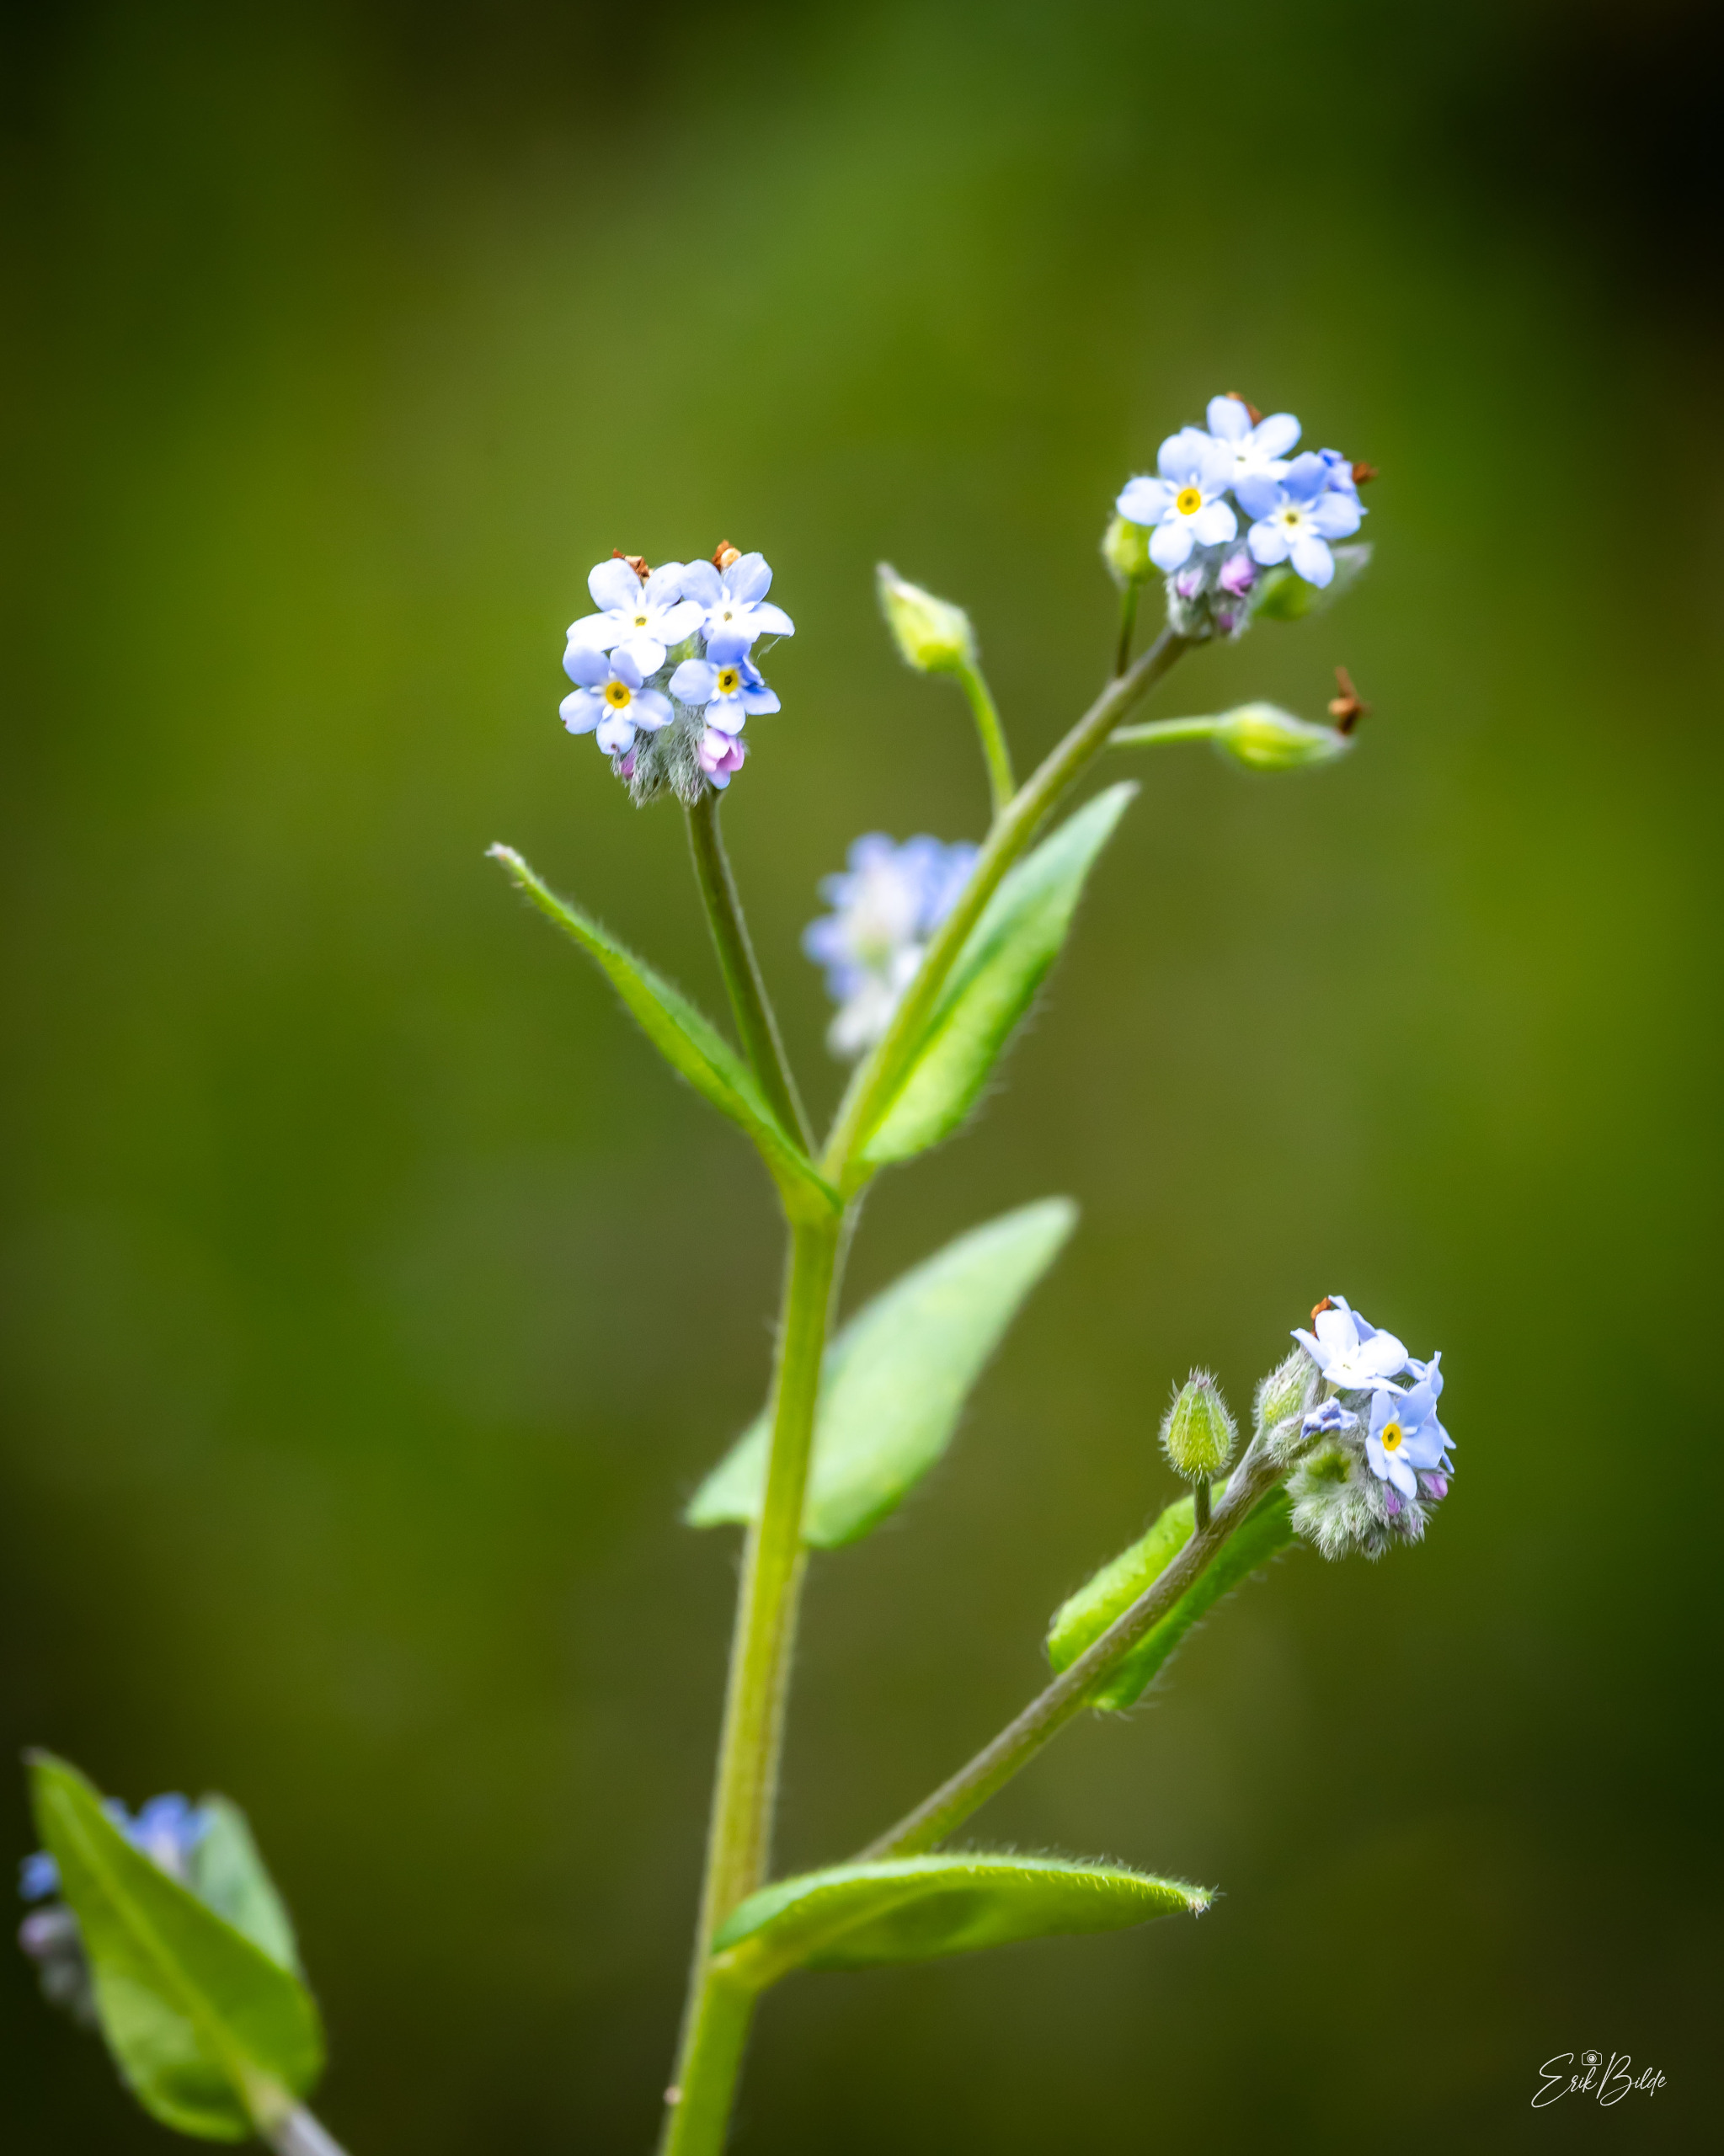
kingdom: Plantae
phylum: Tracheophyta
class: Magnoliopsida
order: Boraginales
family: Boraginaceae
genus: Myosotis
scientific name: Myosotis arvensis
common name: Mark-forglemmigej
